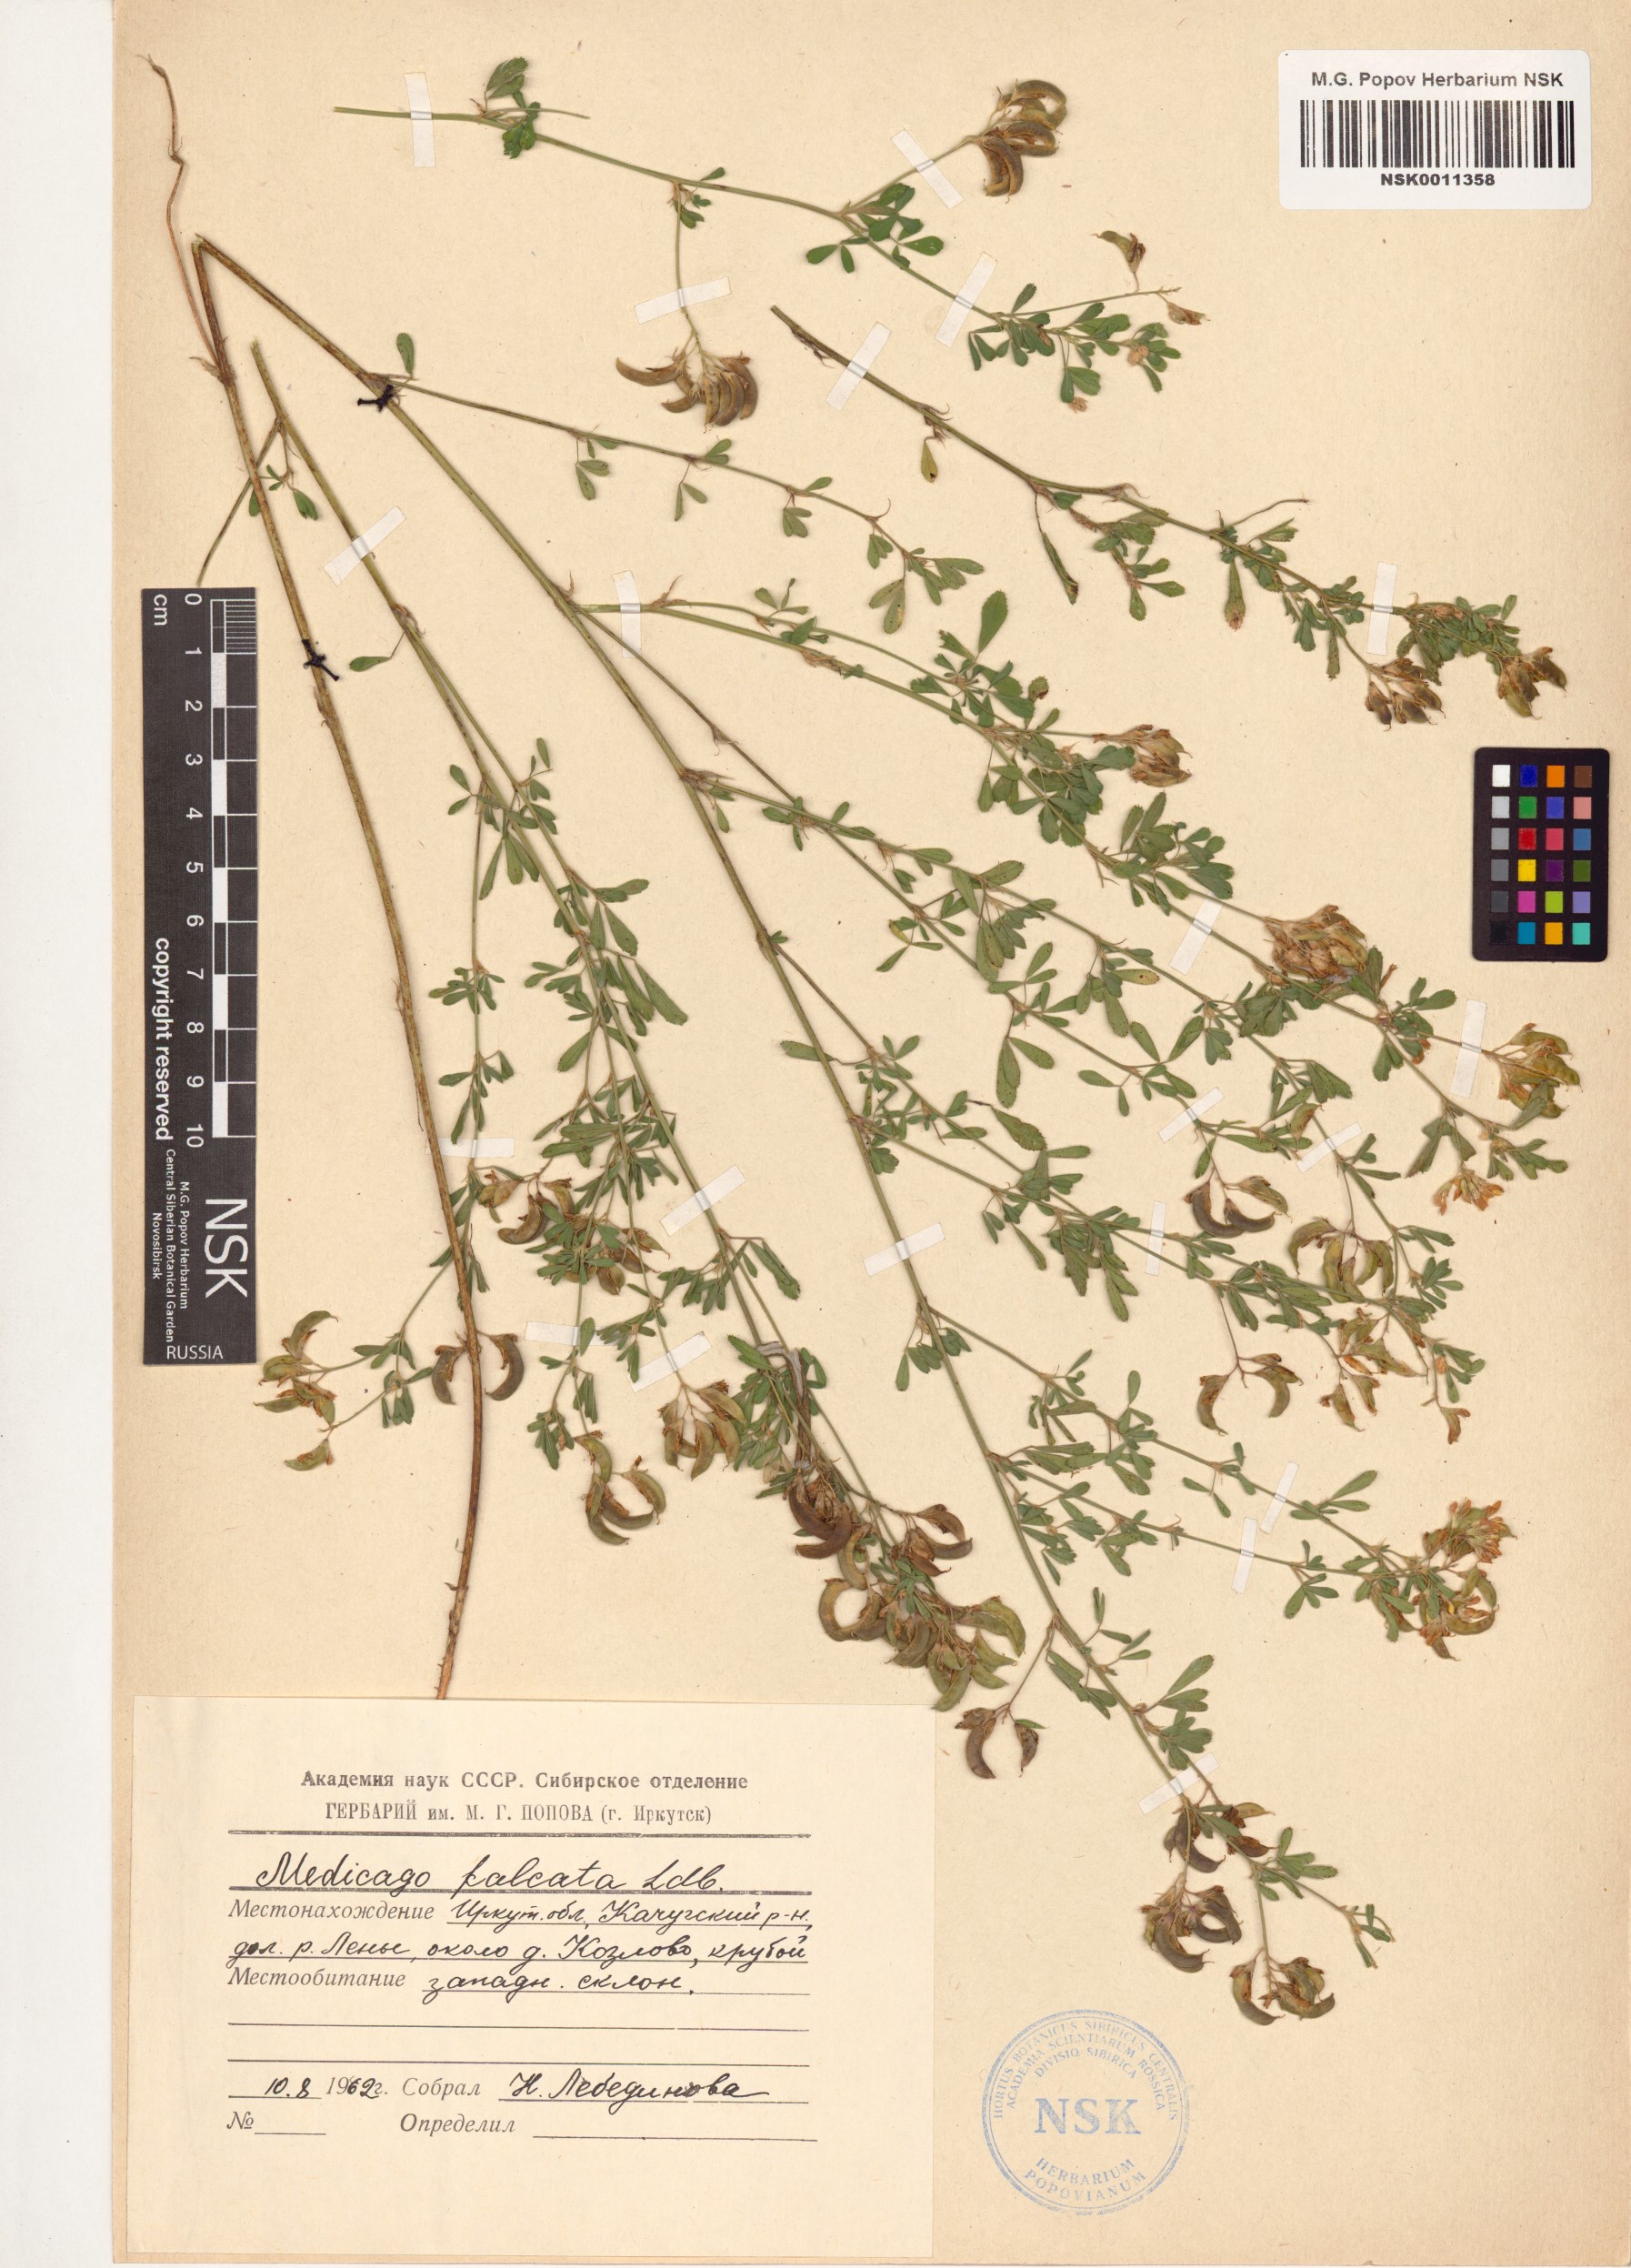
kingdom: Plantae
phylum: Tracheophyta
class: Magnoliopsida
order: Fabales
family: Fabaceae
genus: Medicago
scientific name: Medicago falcata
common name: Sickle medick
